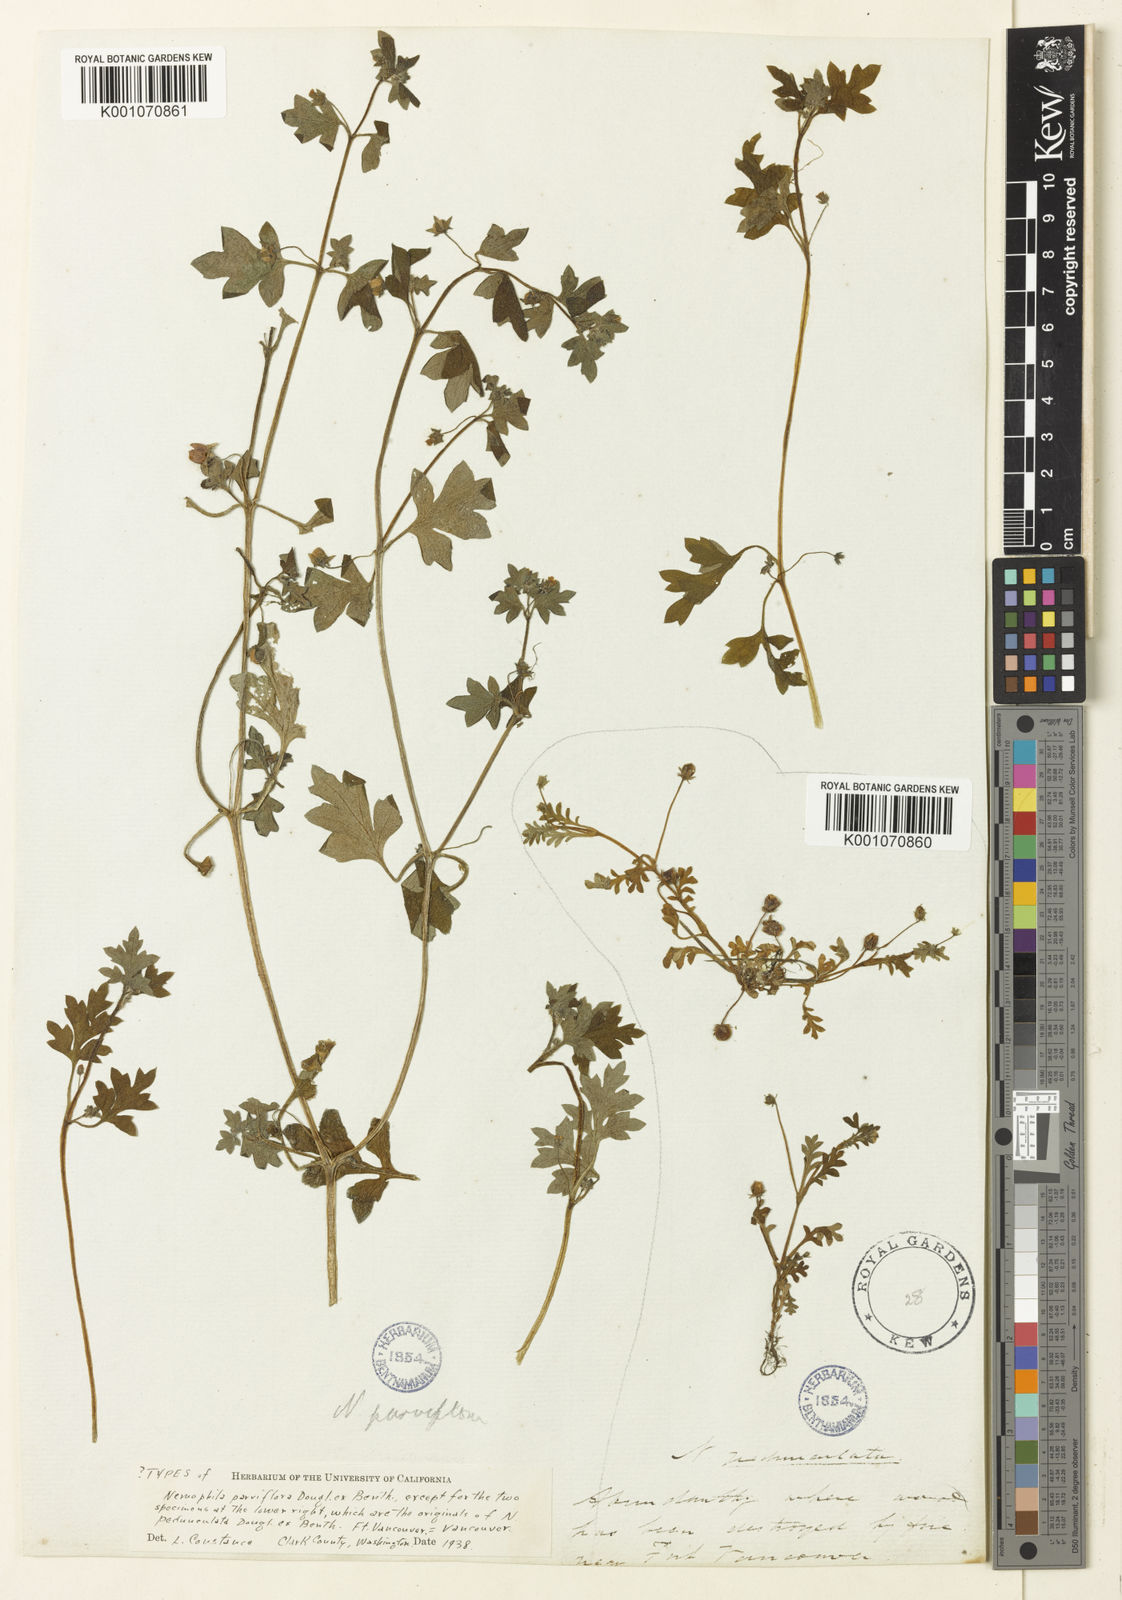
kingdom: Plantae
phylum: Tracheophyta
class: Magnoliopsida
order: Boraginales
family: Hydrophyllaceae
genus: Nemophila
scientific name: Nemophila
